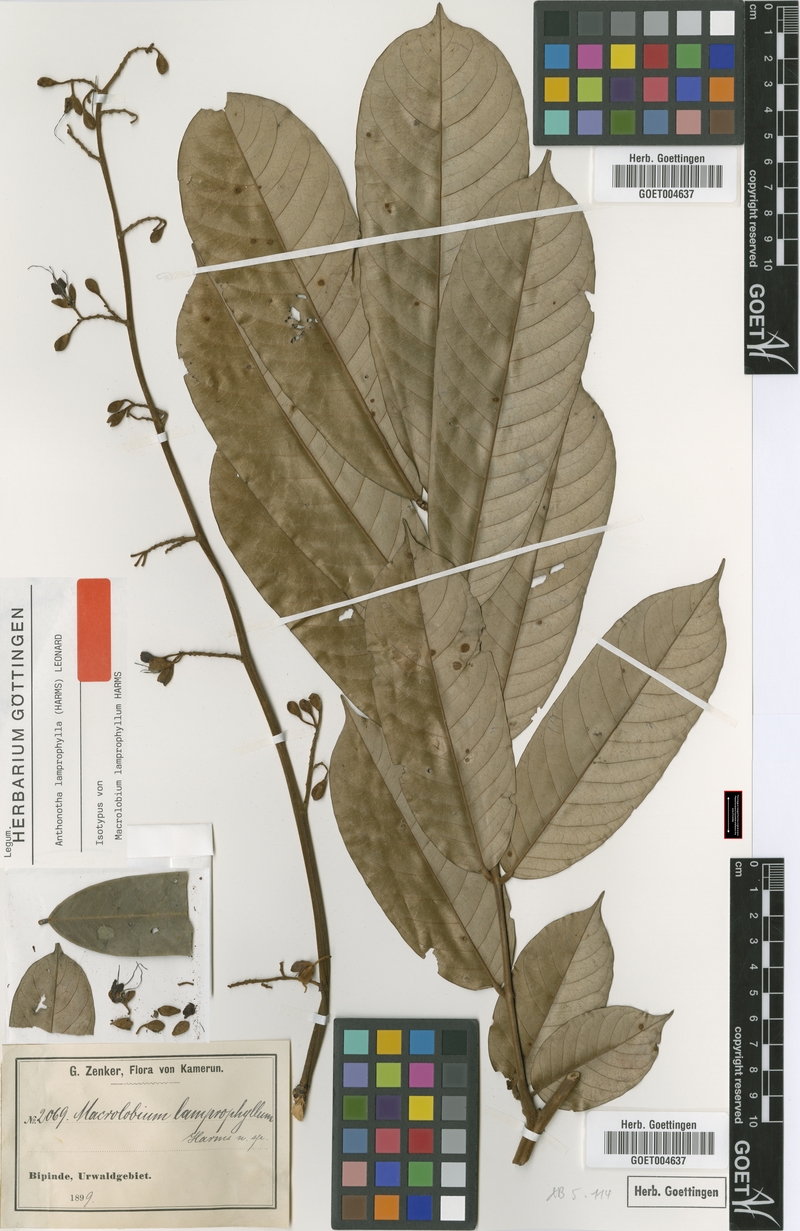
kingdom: Plantae
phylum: Tracheophyta
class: Magnoliopsida
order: Fabales
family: Fabaceae
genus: Anthonotha
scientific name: Anthonotha lamprophylla
